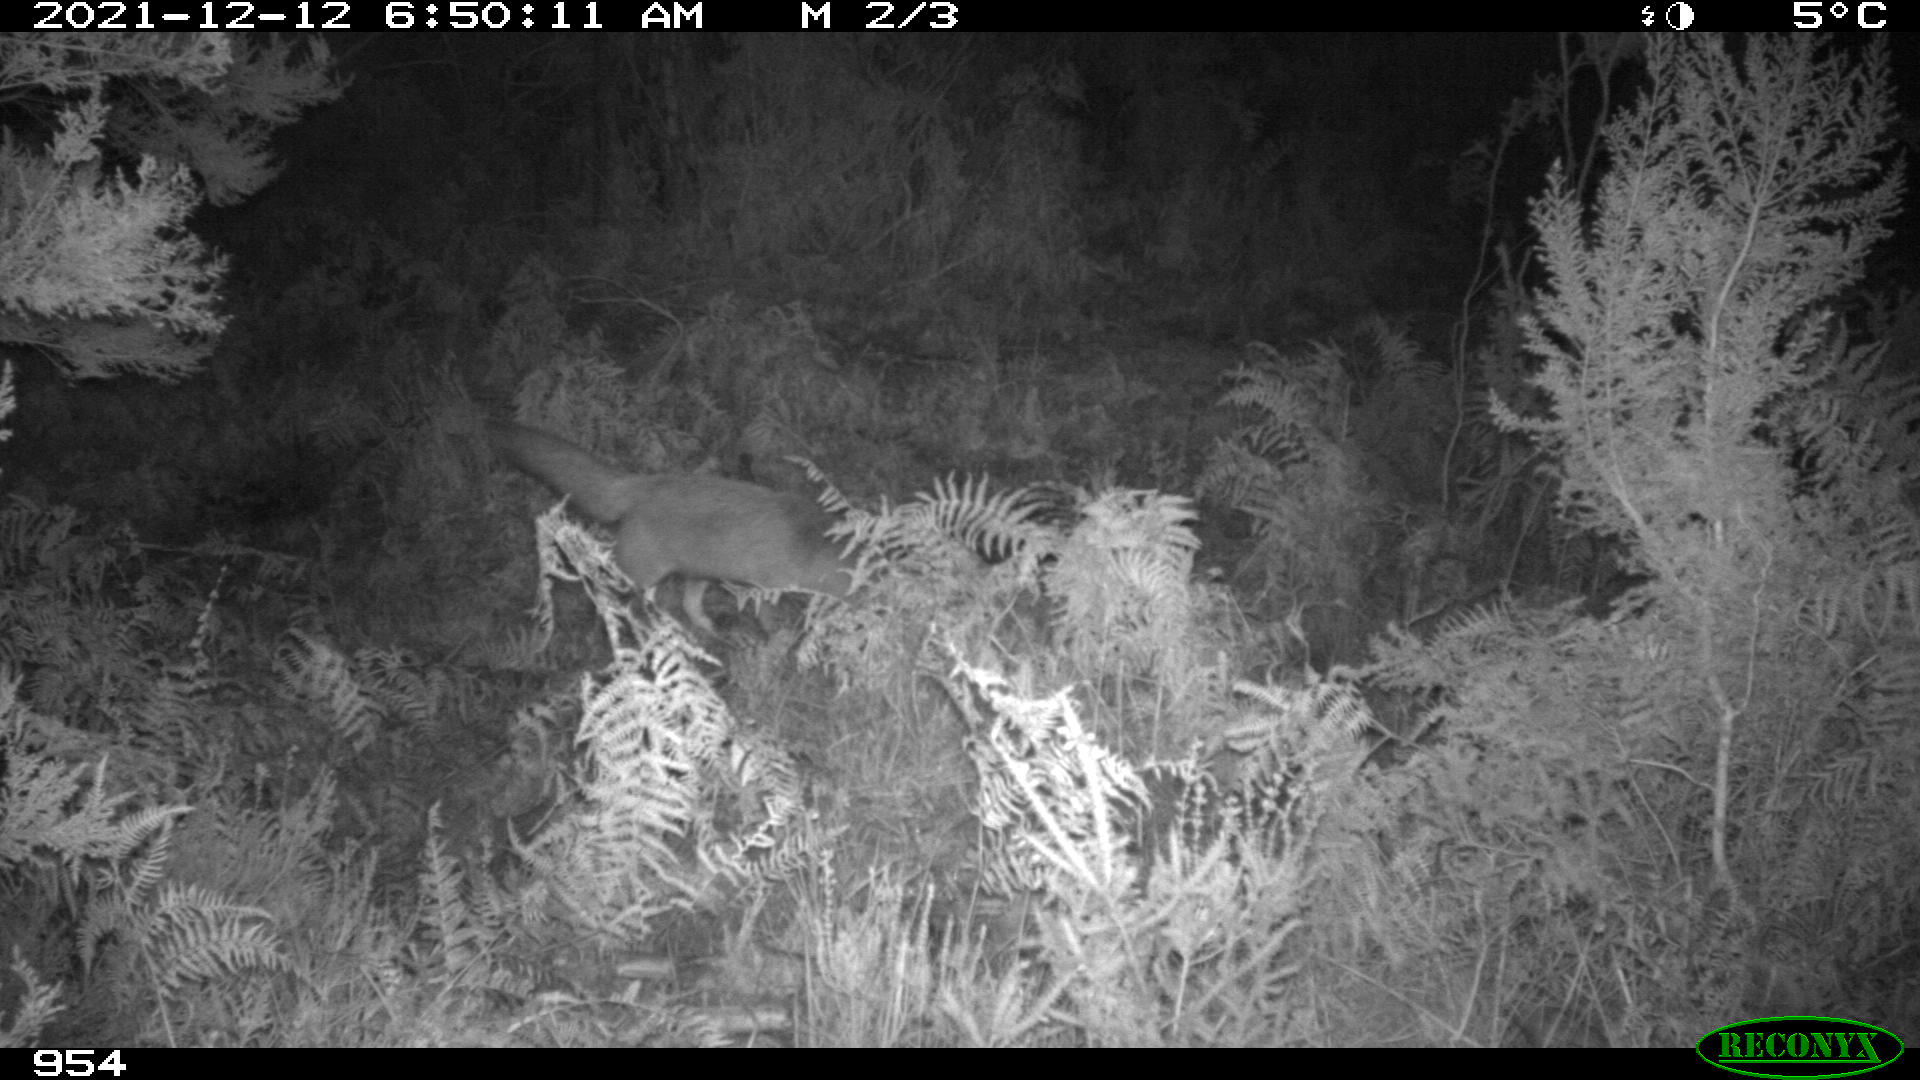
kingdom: Animalia
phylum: Chordata
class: Mammalia
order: Carnivora
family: Canidae
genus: Vulpes
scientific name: Vulpes vulpes
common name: Red fox
